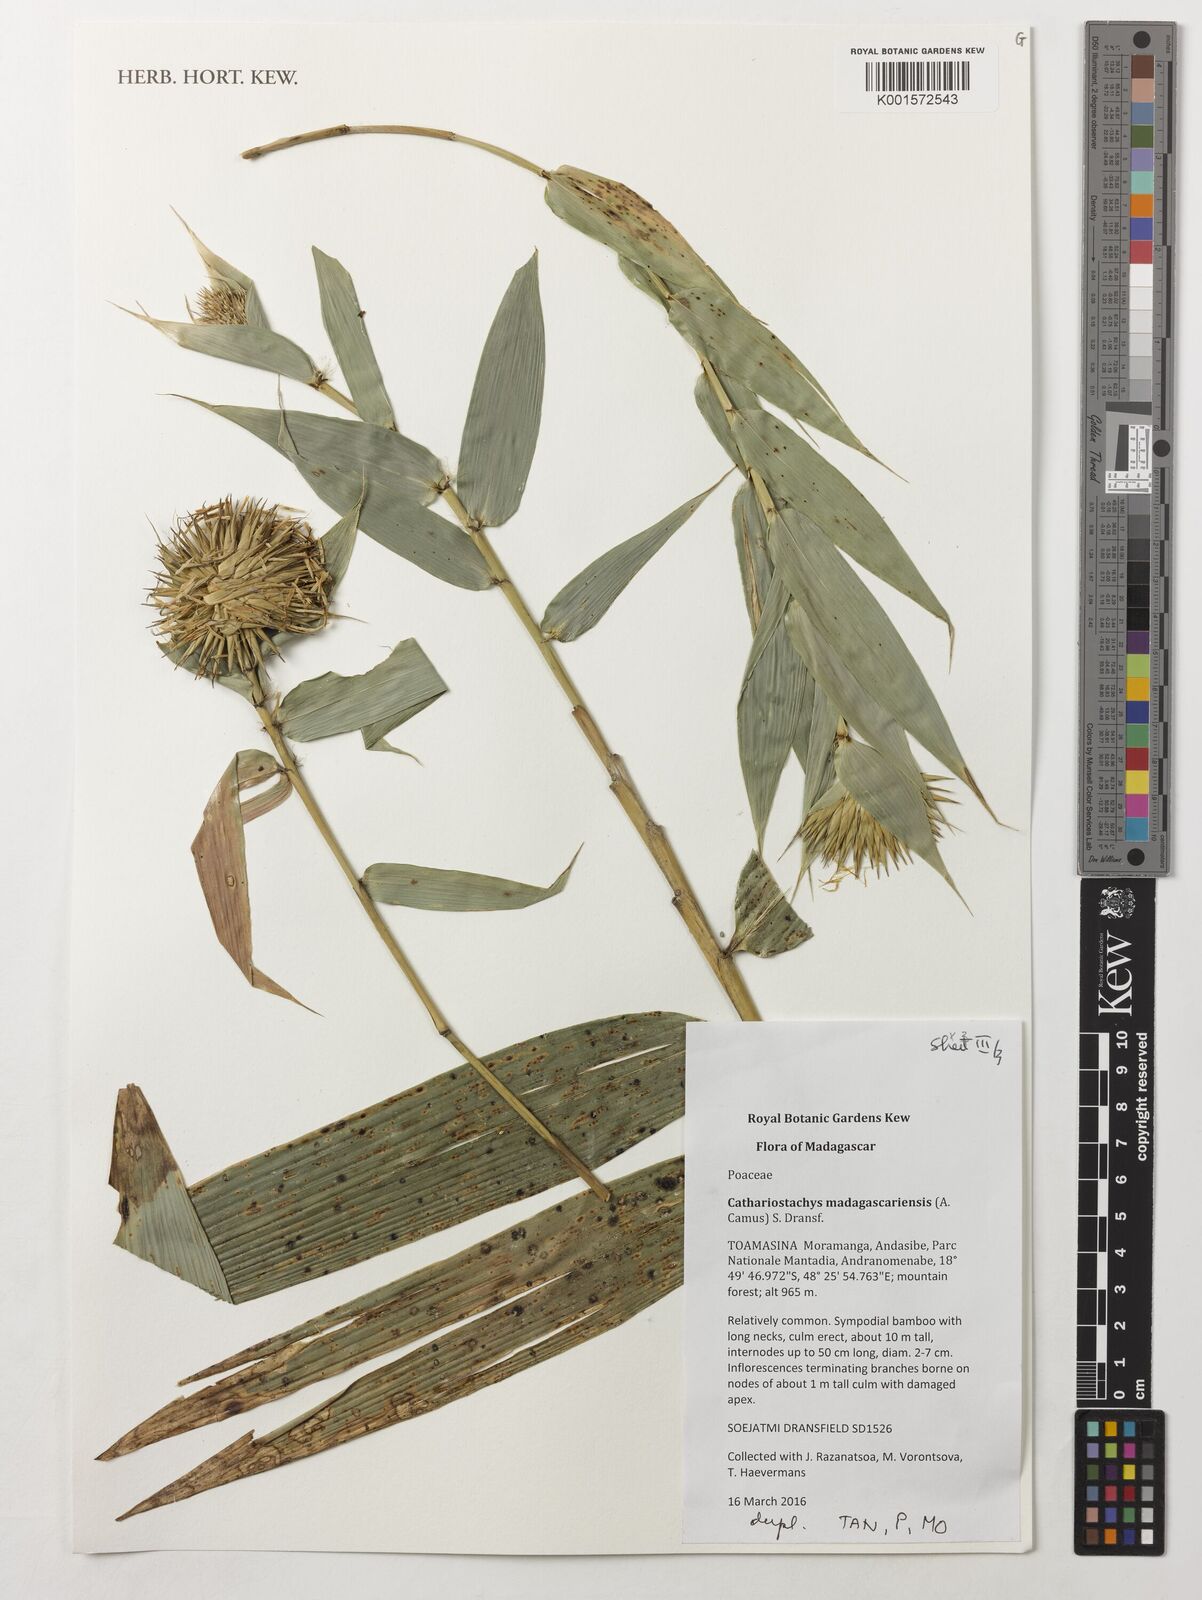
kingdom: Plantae
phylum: Tracheophyta
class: Liliopsida
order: Poales
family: Poaceae
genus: Cathariostachys
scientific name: Cathariostachys madagascariensis
